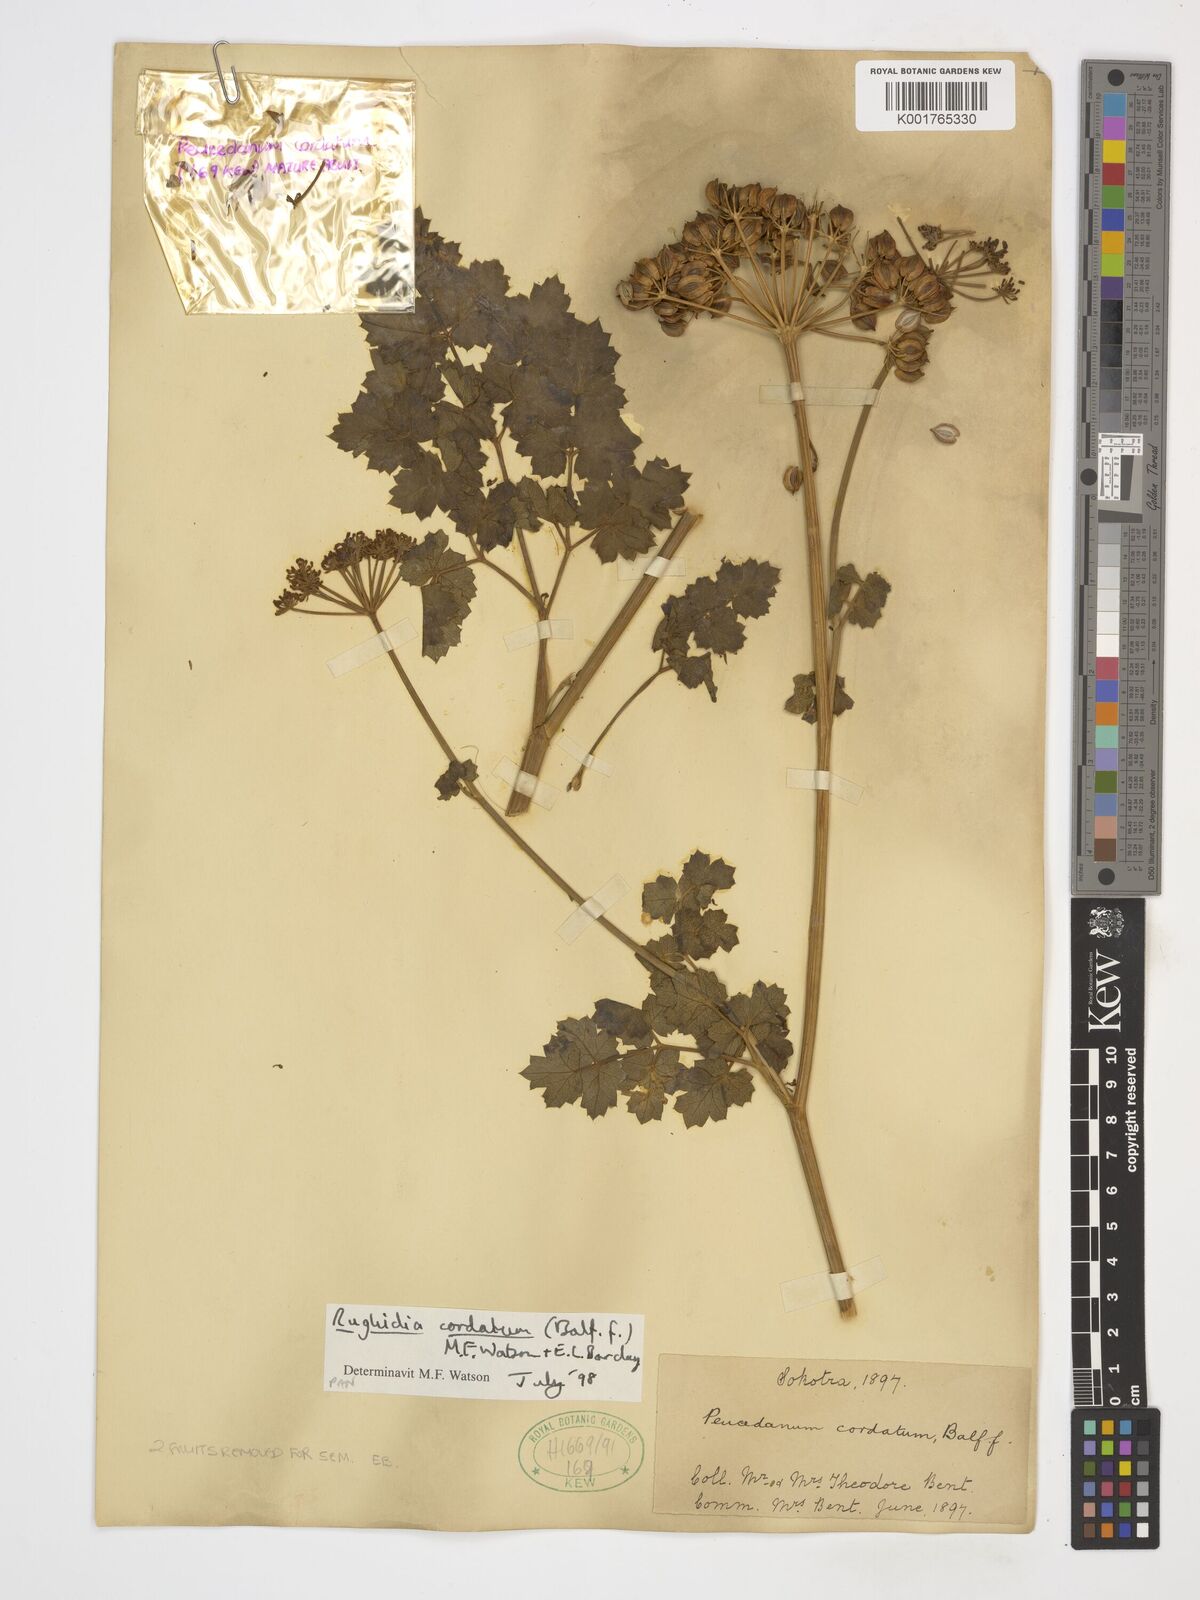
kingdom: Plantae
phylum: Tracheophyta
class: Magnoliopsida
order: Apiales
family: Apiaceae
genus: Rughidia
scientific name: Rughidia cordata
